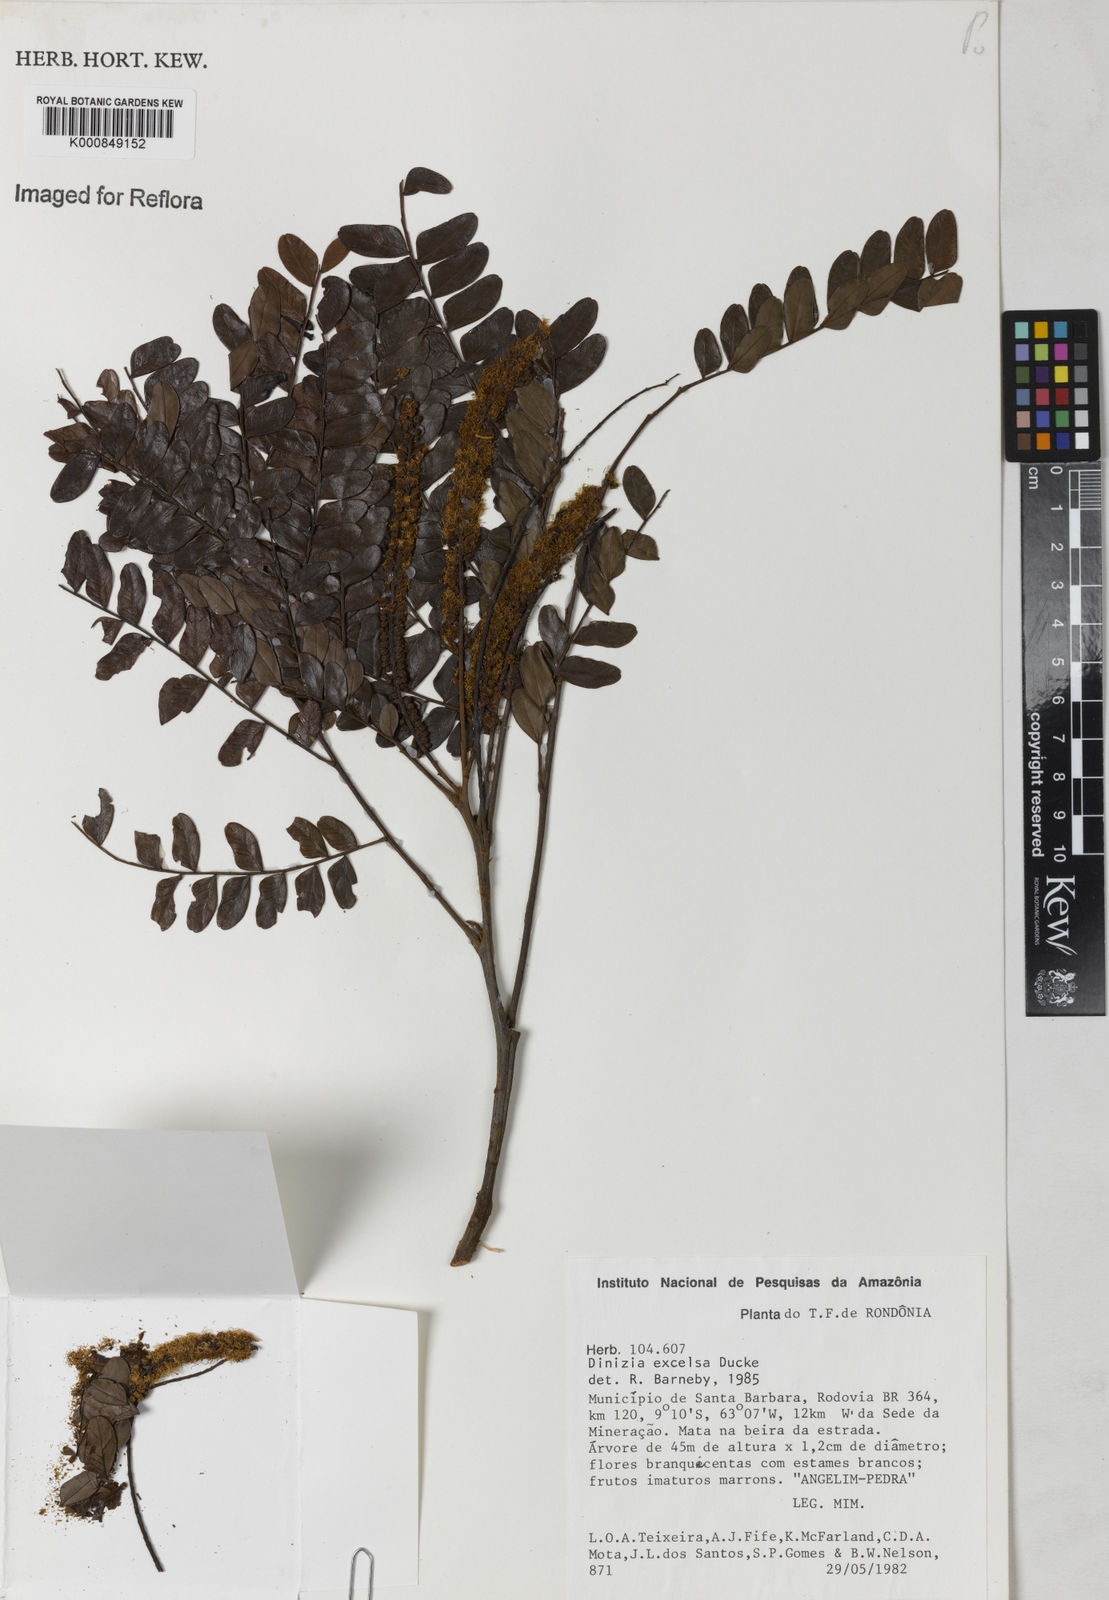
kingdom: Plantae
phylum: Tracheophyta
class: Magnoliopsida
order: Fabales
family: Fabaceae
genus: Dinizia
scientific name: Dinizia excelsa
